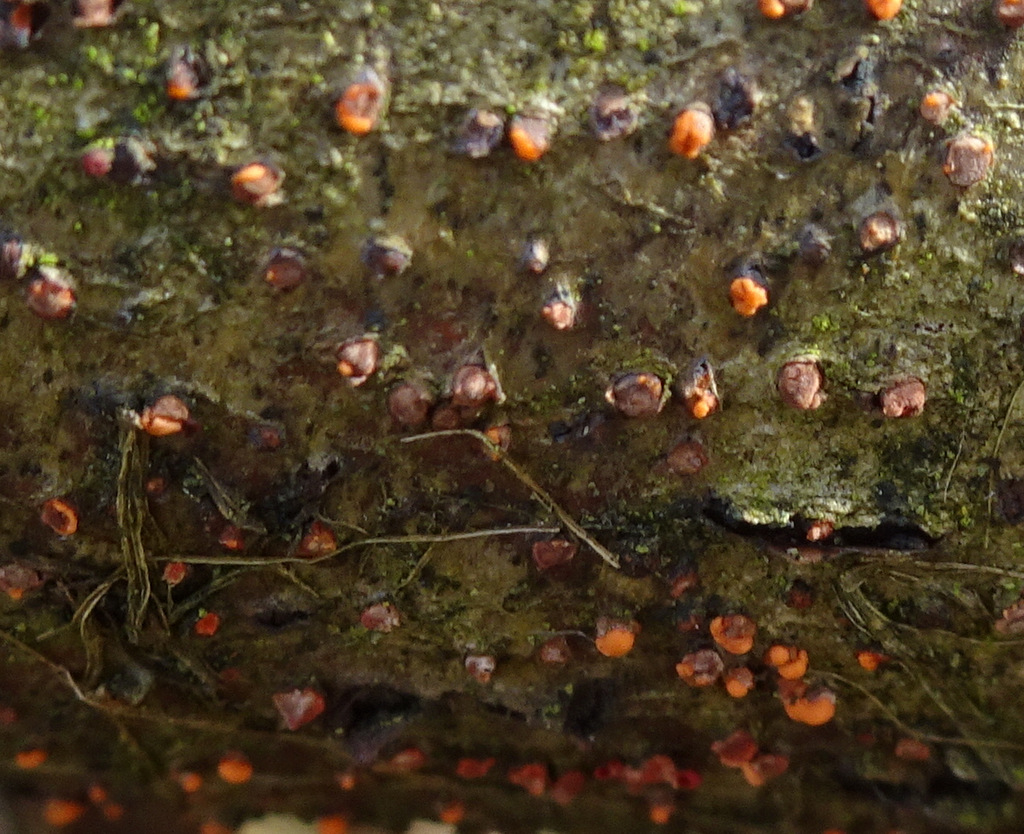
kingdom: Fungi
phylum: Ascomycota
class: Sordariomycetes
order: Hypocreales
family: Nectriaceae
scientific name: Nectriaceae
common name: cinnobersvampfamilien
